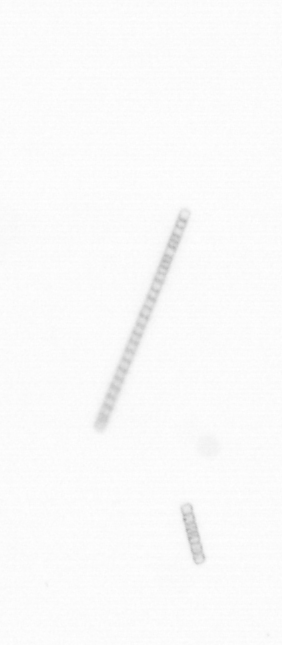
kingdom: Chromista
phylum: Ochrophyta
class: Bacillariophyceae
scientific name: Bacillariophyceae
